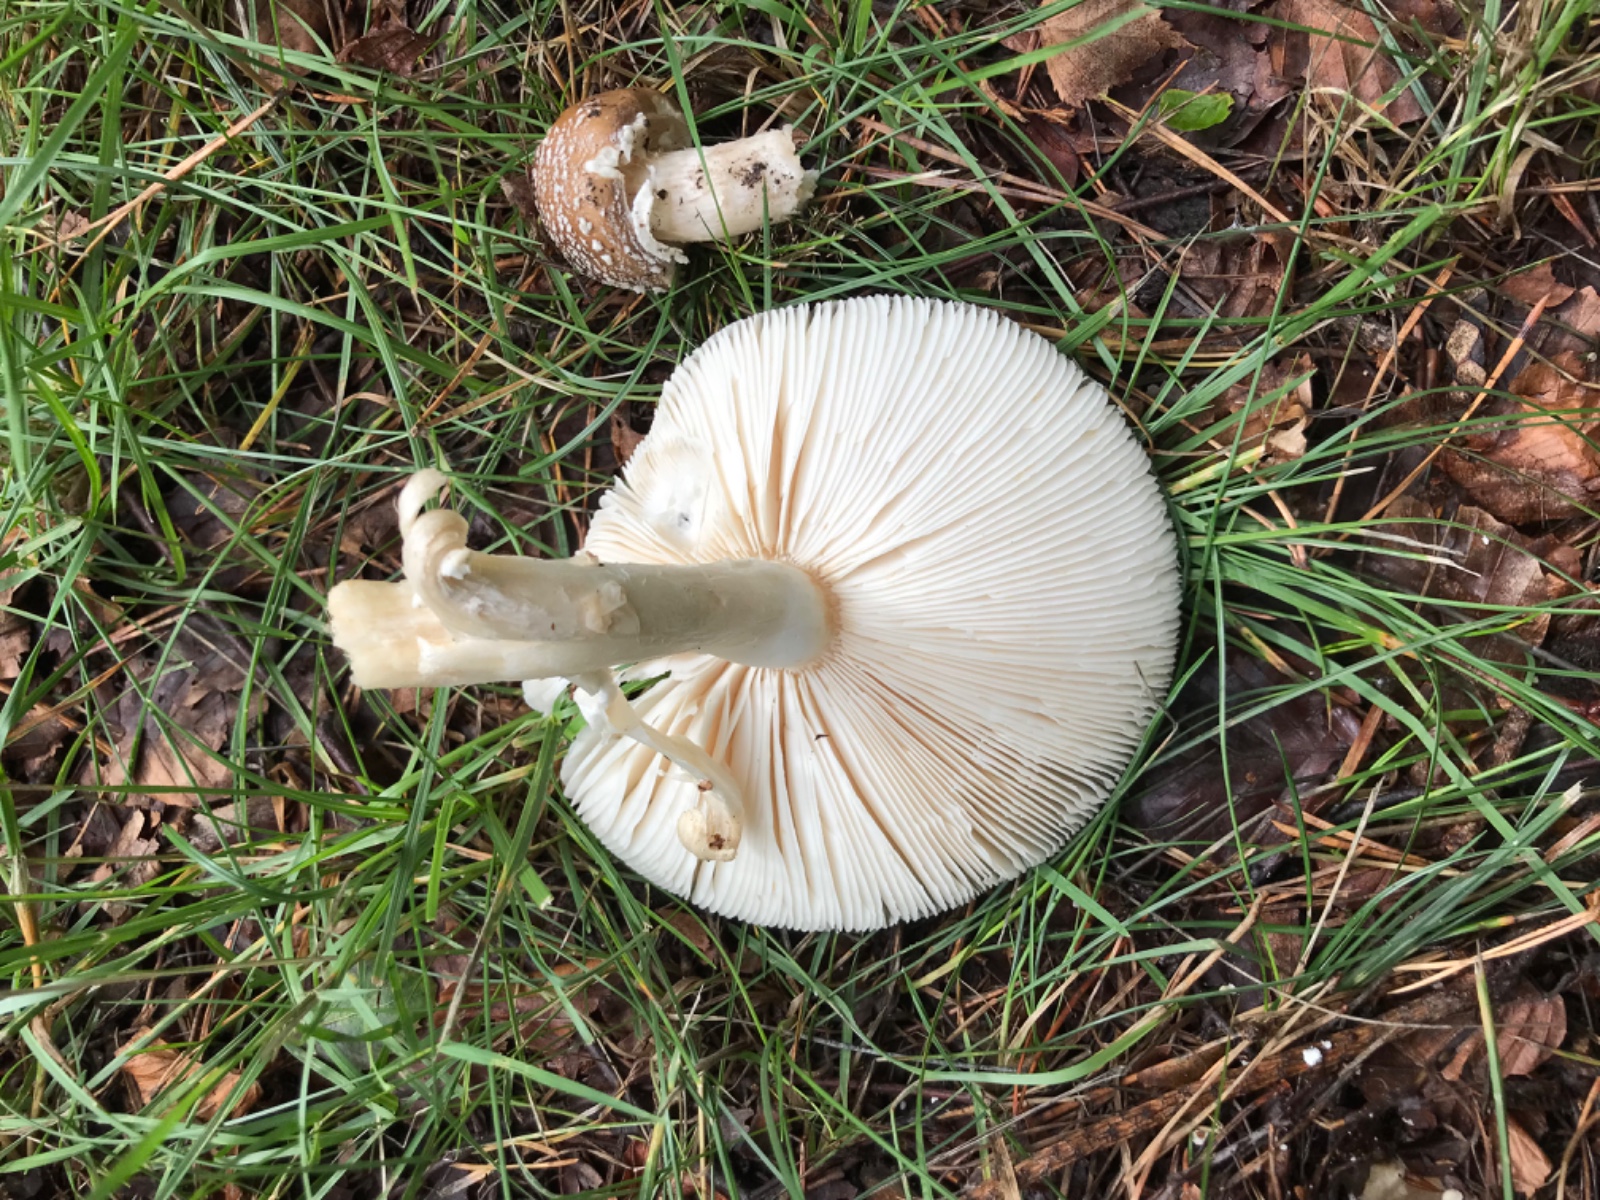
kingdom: Fungi
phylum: Basidiomycota
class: Agaricomycetes
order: Agaricales
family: Amanitaceae
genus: Amanita
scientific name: Amanita pantherina
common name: panter-fluesvamp
